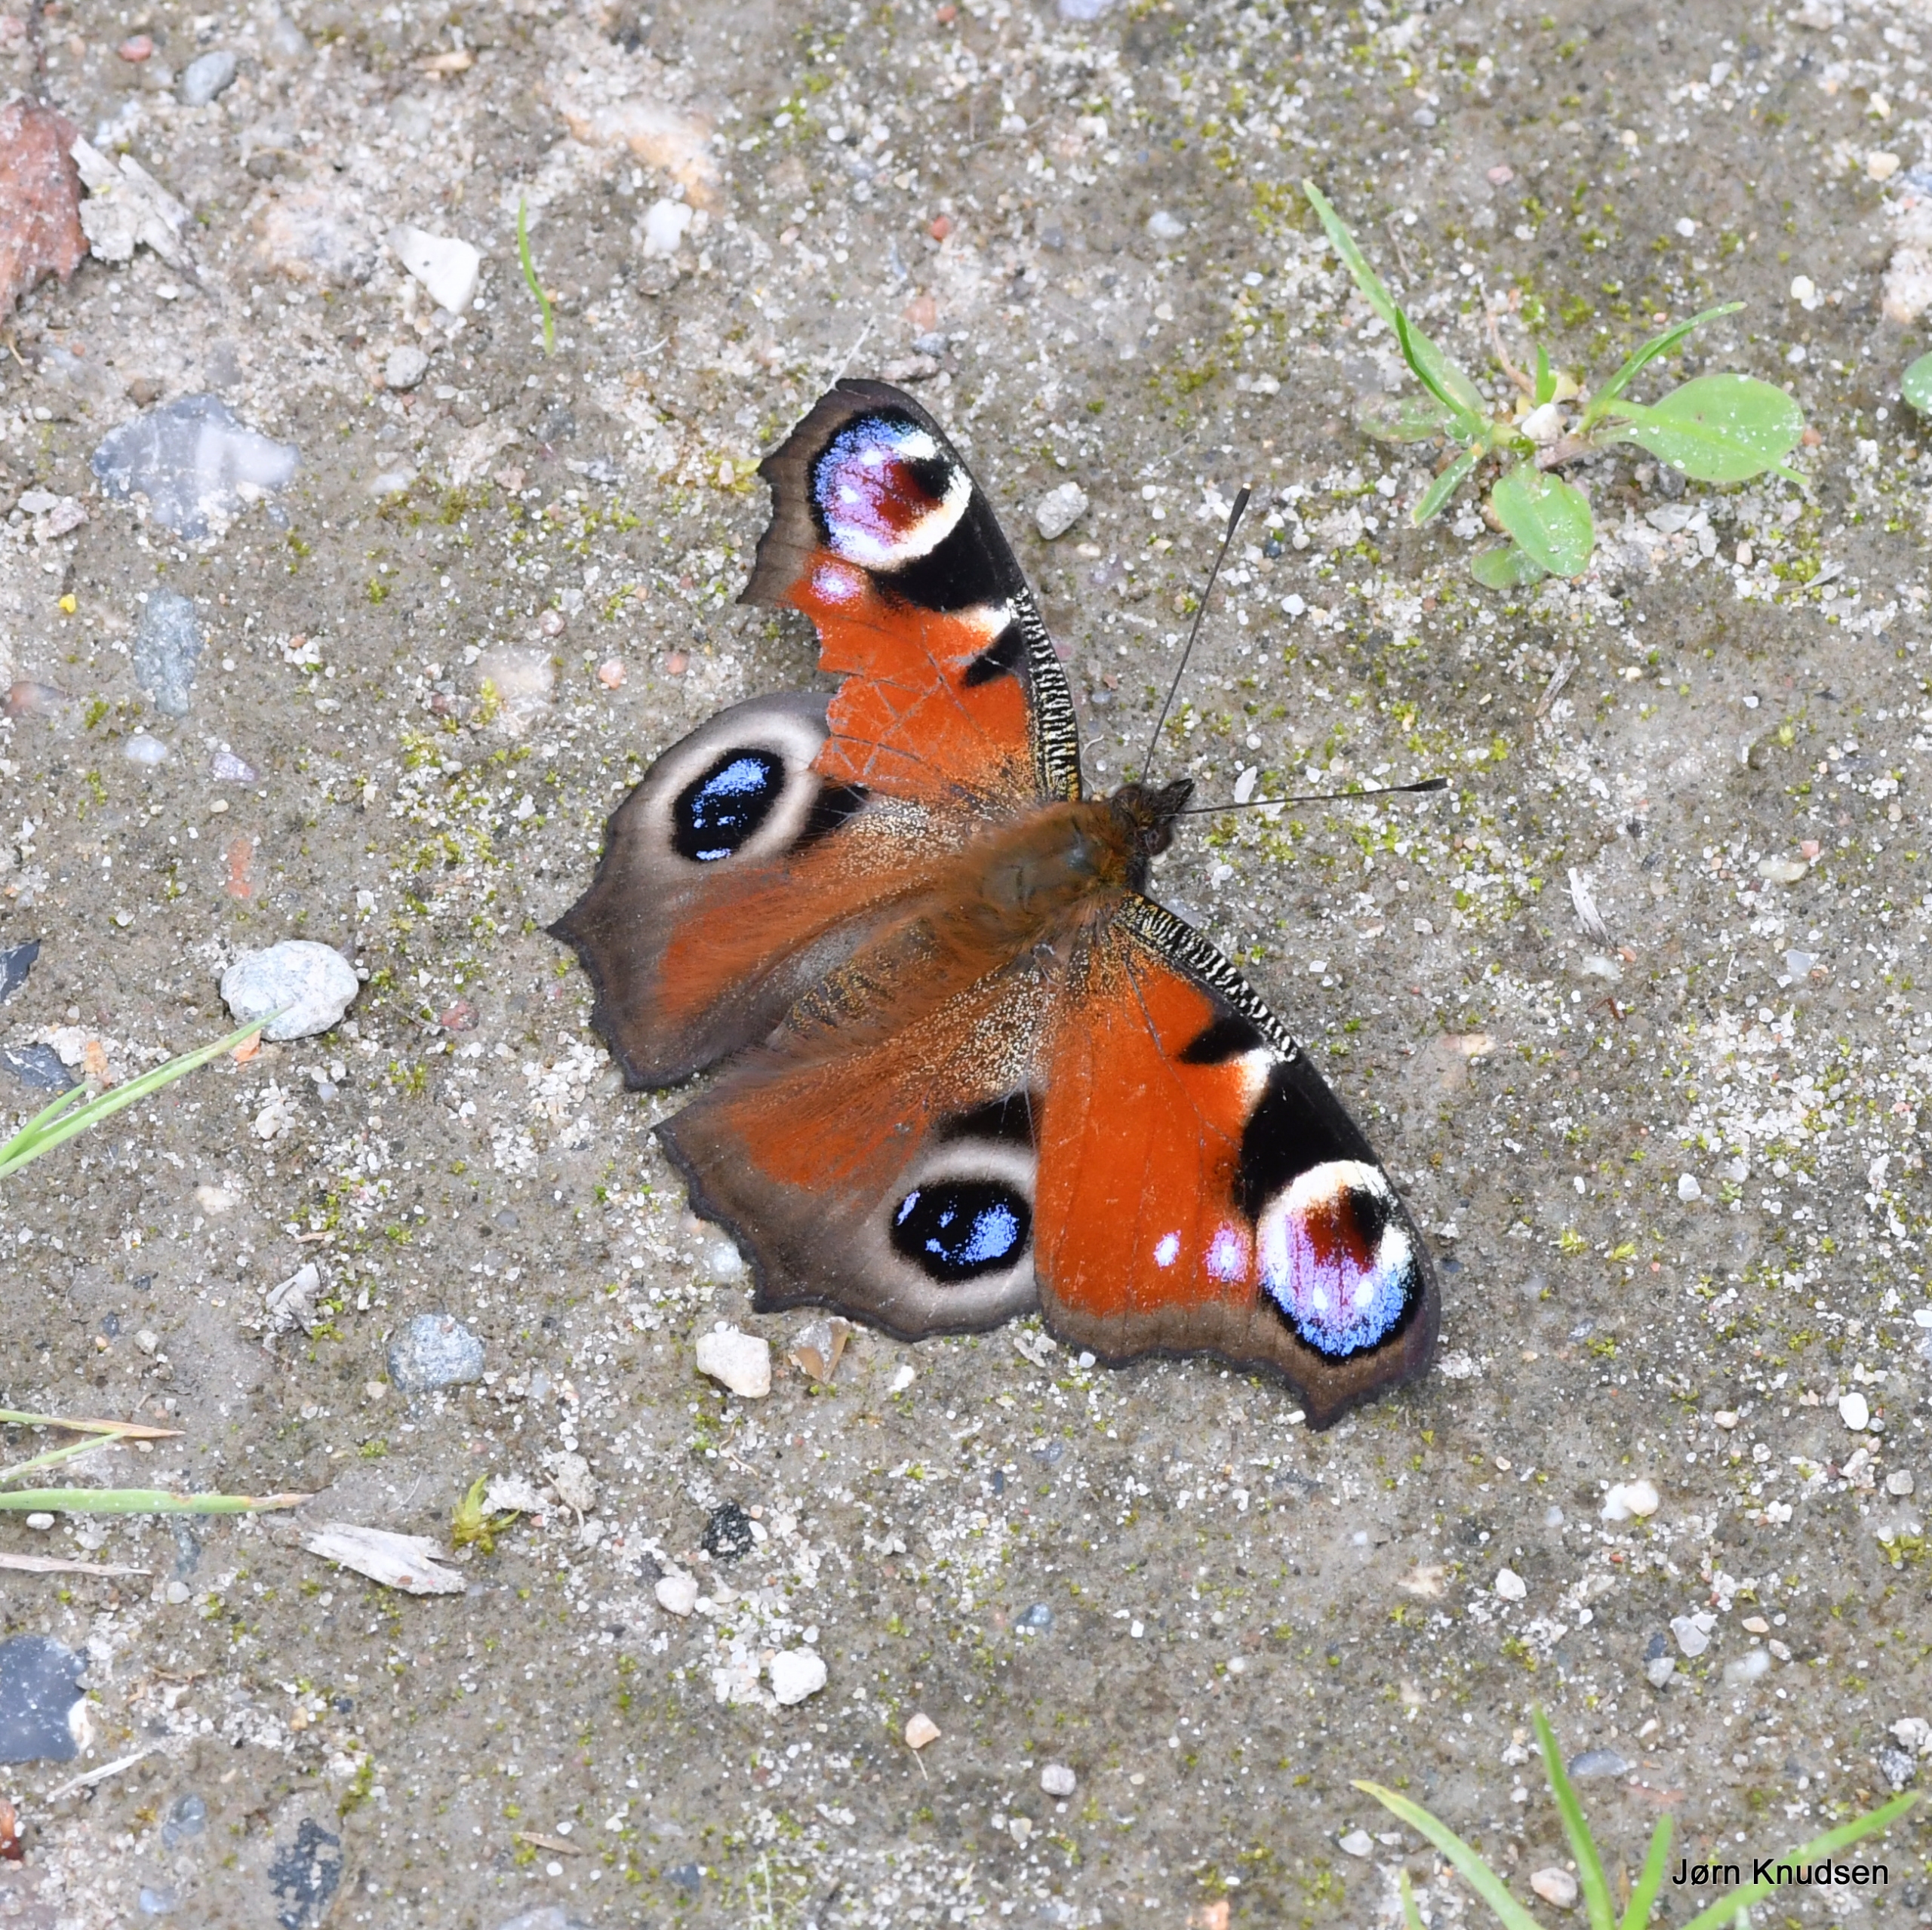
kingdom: Animalia
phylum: Arthropoda
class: Insecta
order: Lepidoptera
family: Nymphalidae
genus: Aglais
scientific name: Aglais io
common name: Dagpåfugleøje
